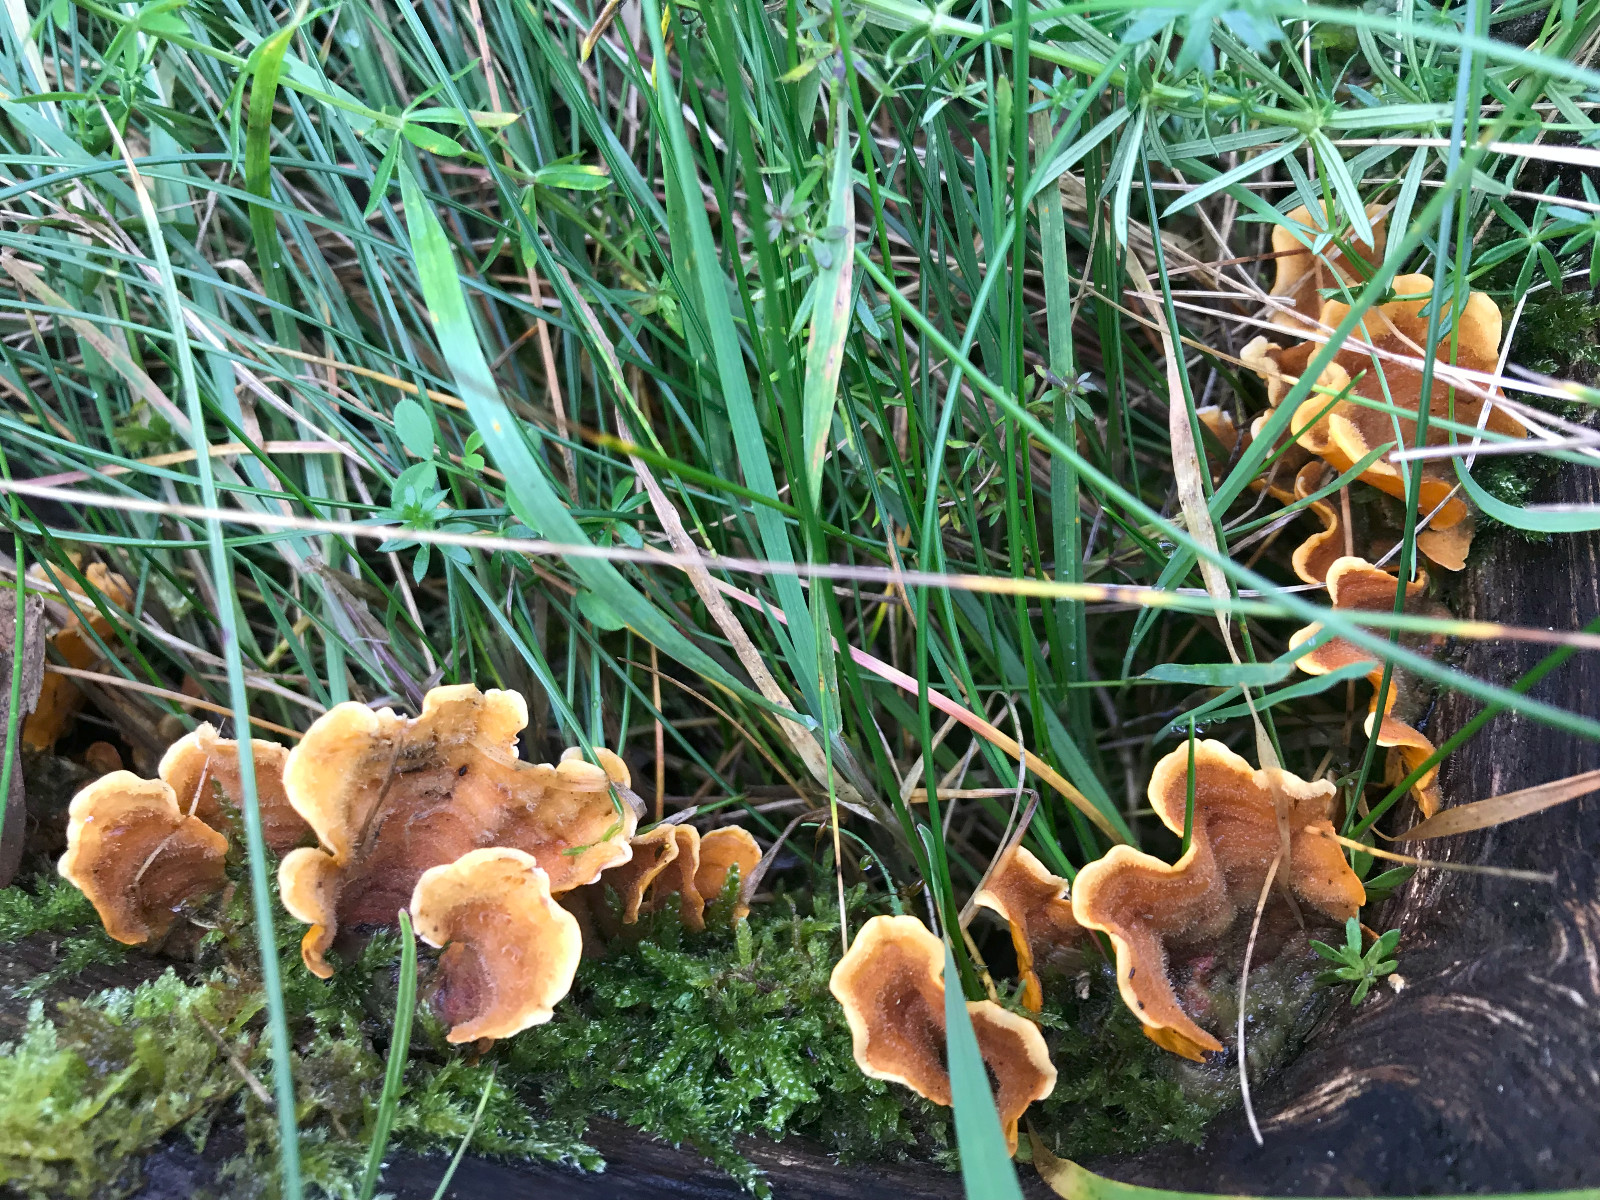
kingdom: Fungi
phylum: Basidiomycota
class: Agaricomycetes
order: Russulales
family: Stereaceae
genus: Stereum
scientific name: Stereum
